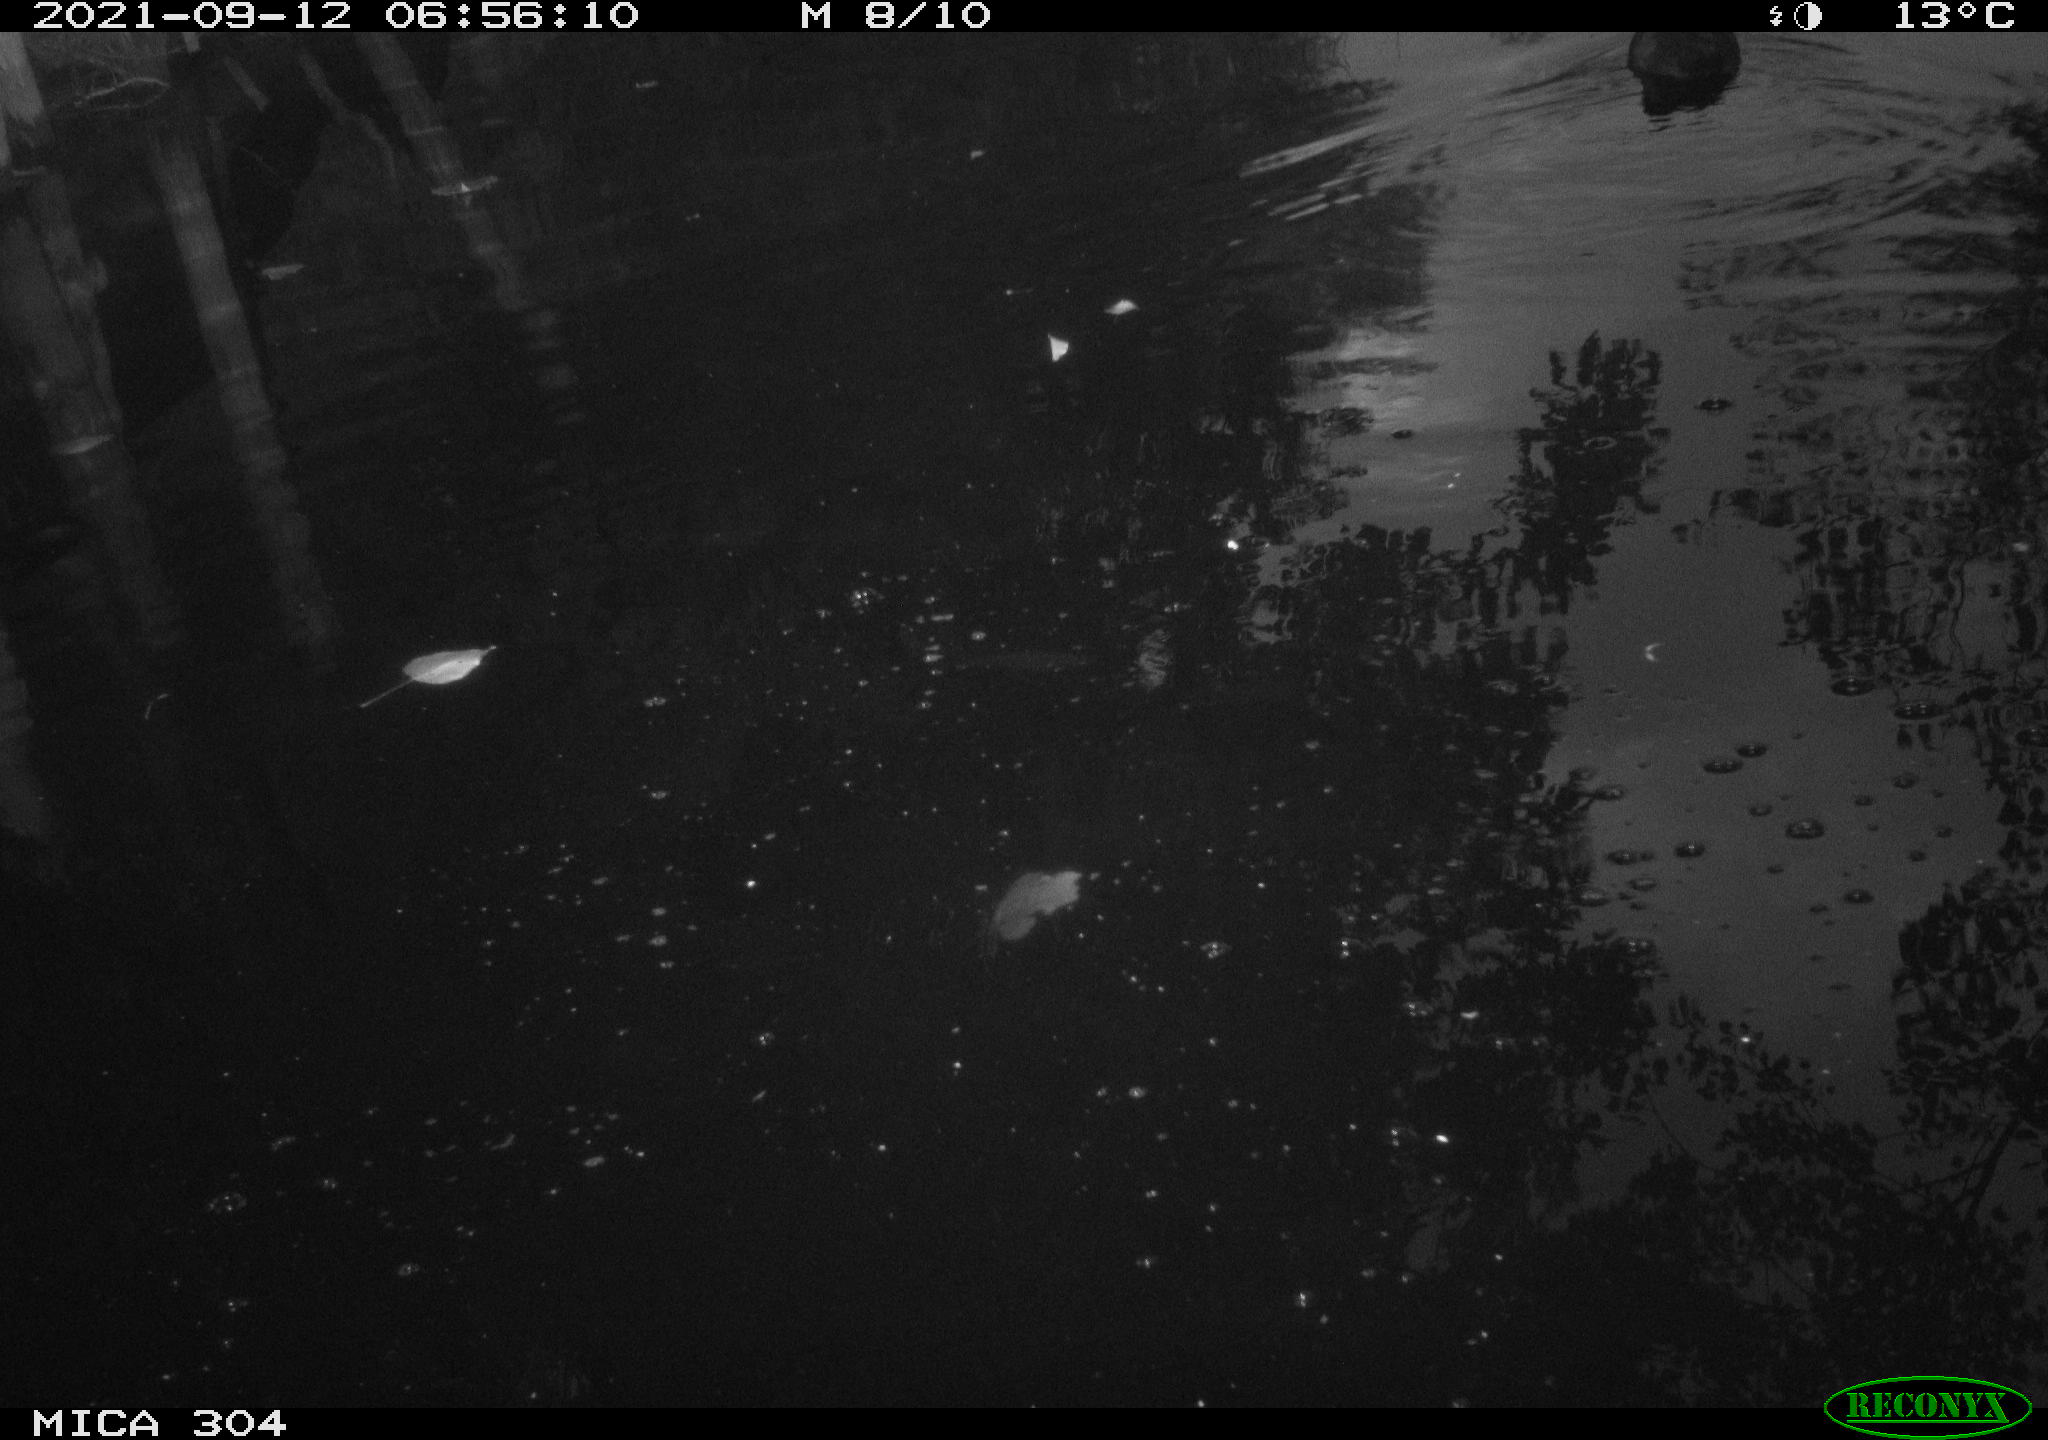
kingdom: Animalia
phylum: Chordata
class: Aves
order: Gruiformes
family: Rallidae
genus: Fulica
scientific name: Fulica atra
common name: Eurasian coot
